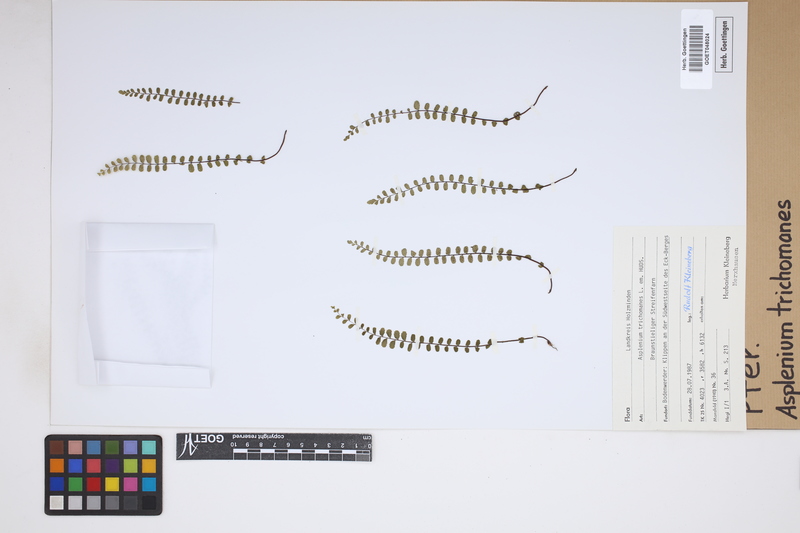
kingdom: Plantae
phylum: Tracheophyta
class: Polypodiopsida
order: Polypodiales
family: Aspleniaceae
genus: Asplenium
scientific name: Asplenium trichomanes
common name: Maidenhair spleenwort
